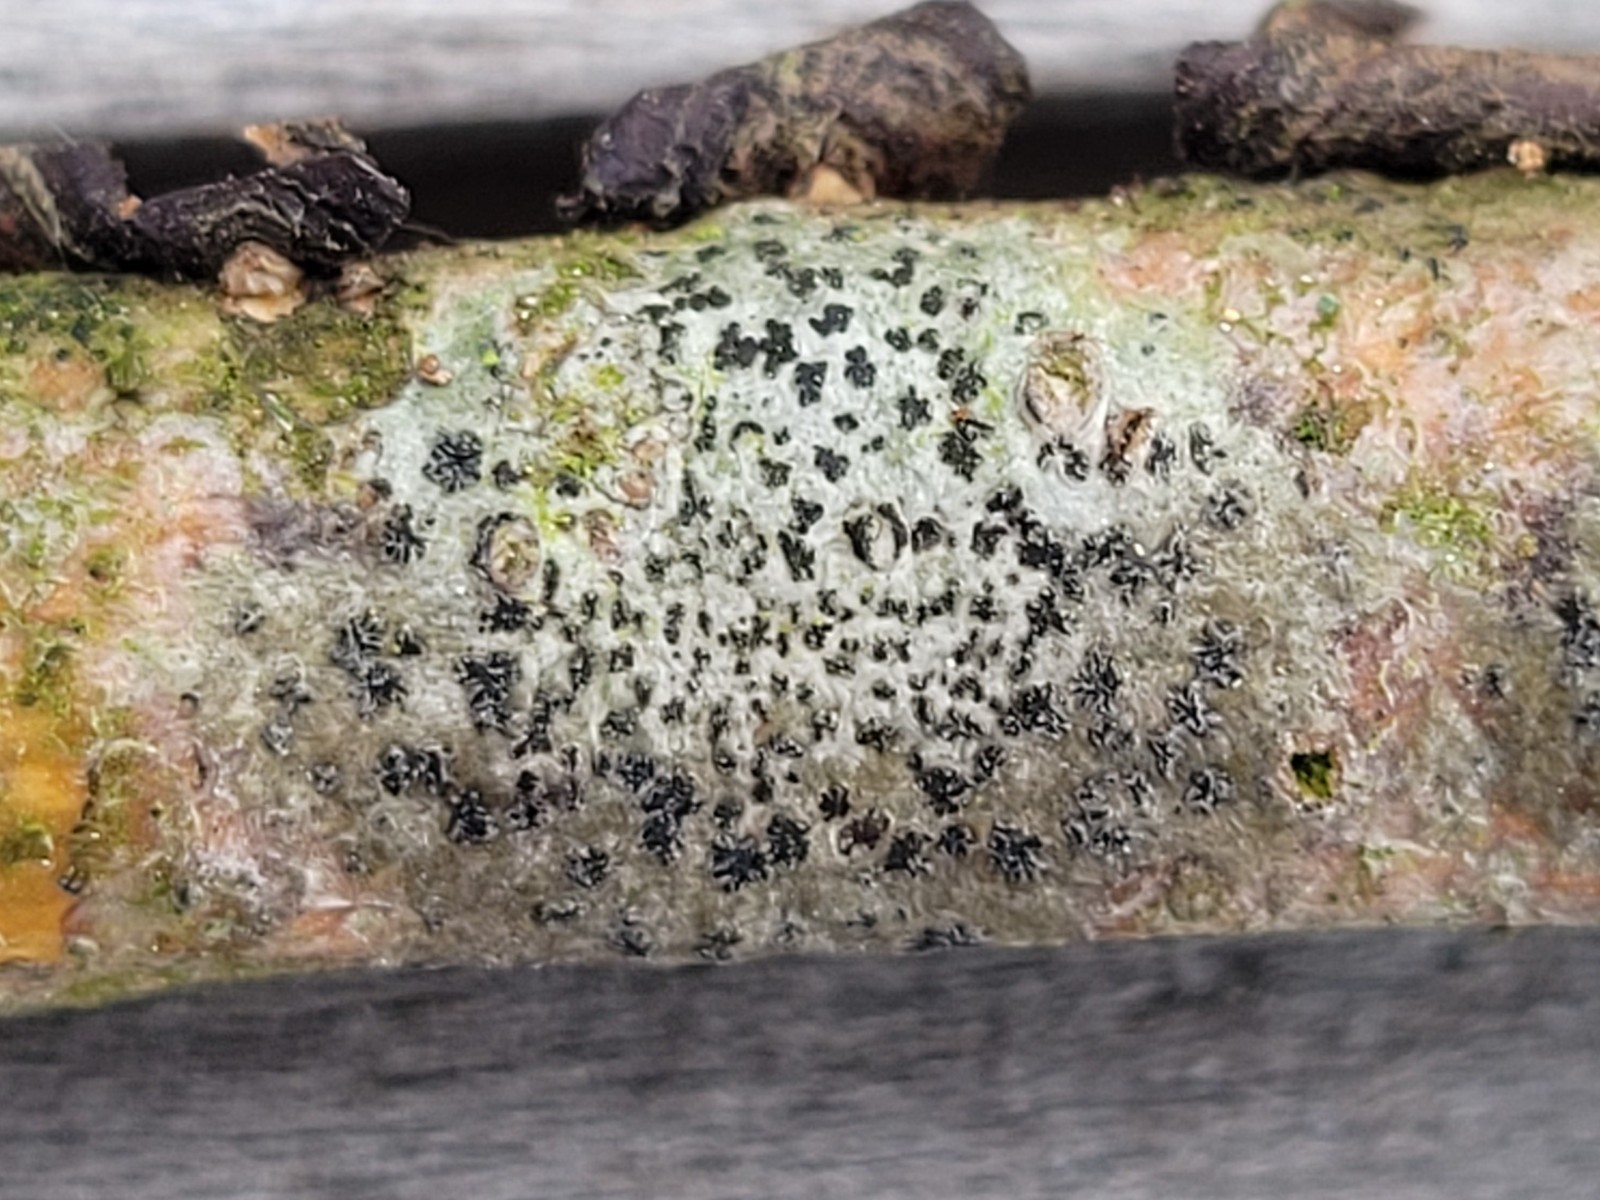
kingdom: Fungi
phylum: Ascomycota
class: Arthoniomycetes
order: Arthoniales
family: Arthoniaceae
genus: Arthonia
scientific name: Arthonia radiata
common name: stjerne-pletlav
